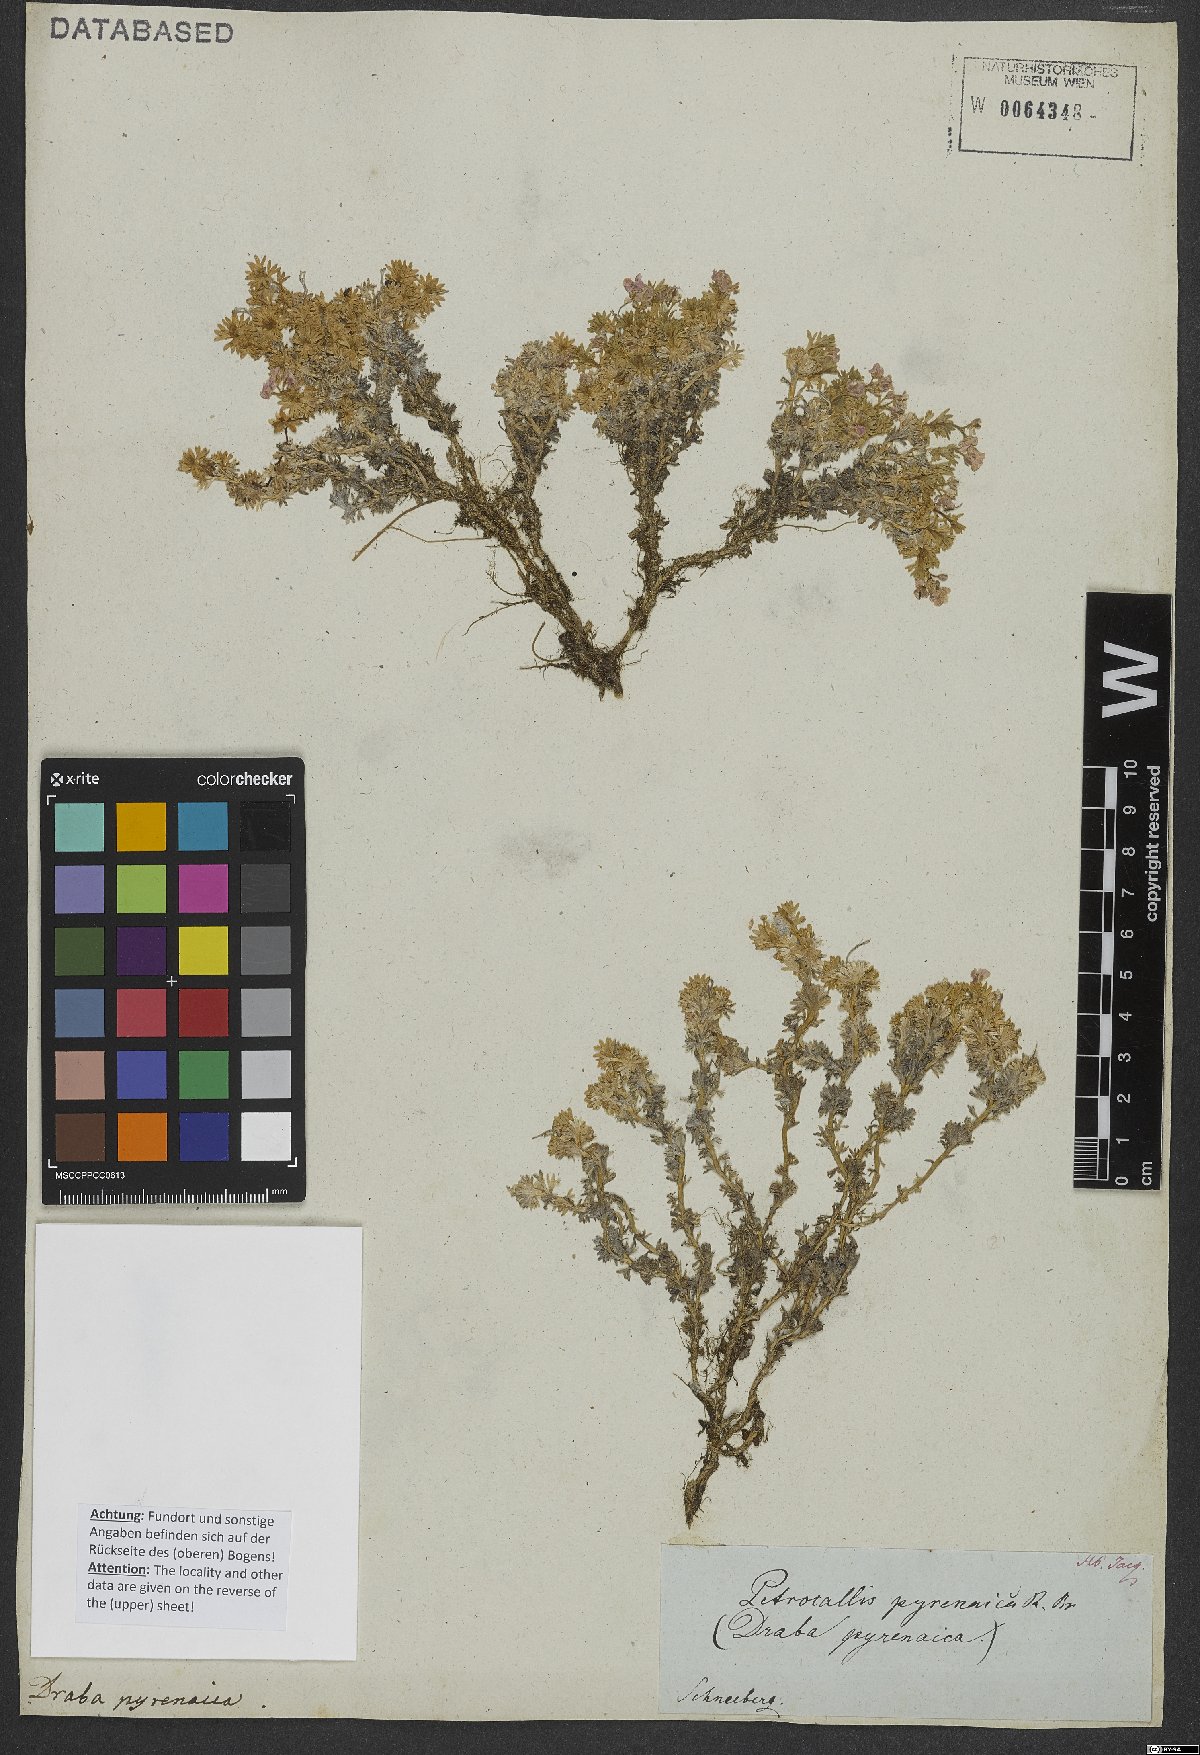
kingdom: Plantae
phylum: Tracheophyta
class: Magnoliopsida
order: Brassicales
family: Brassicaceae
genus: Petrocallis
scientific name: Petrocallis pyrenaica
